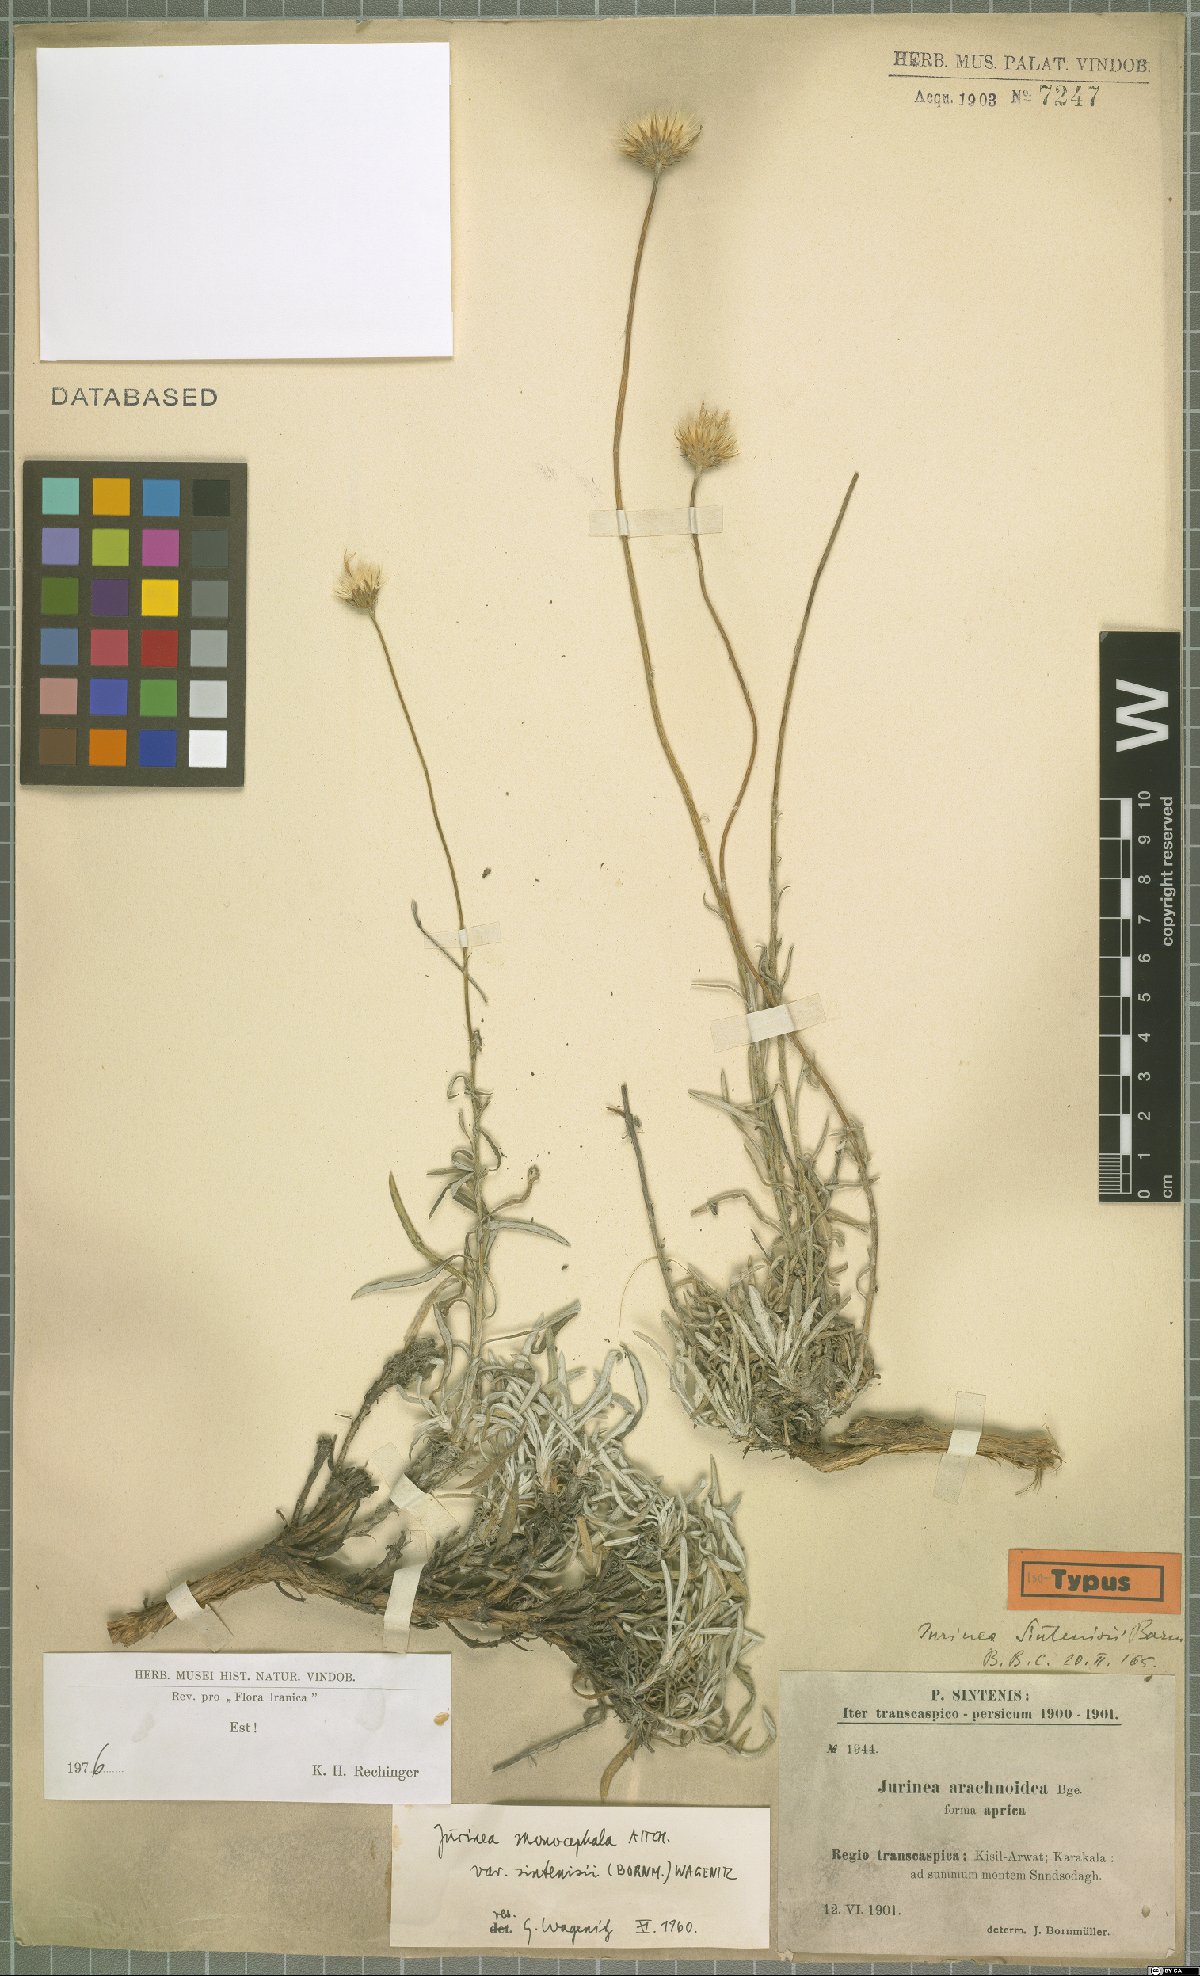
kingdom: Plantae
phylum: Tracheophyta
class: Magnoliopsida
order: Asterales
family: Asteraceae
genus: Jurinea
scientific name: Jurinea sintenisii
